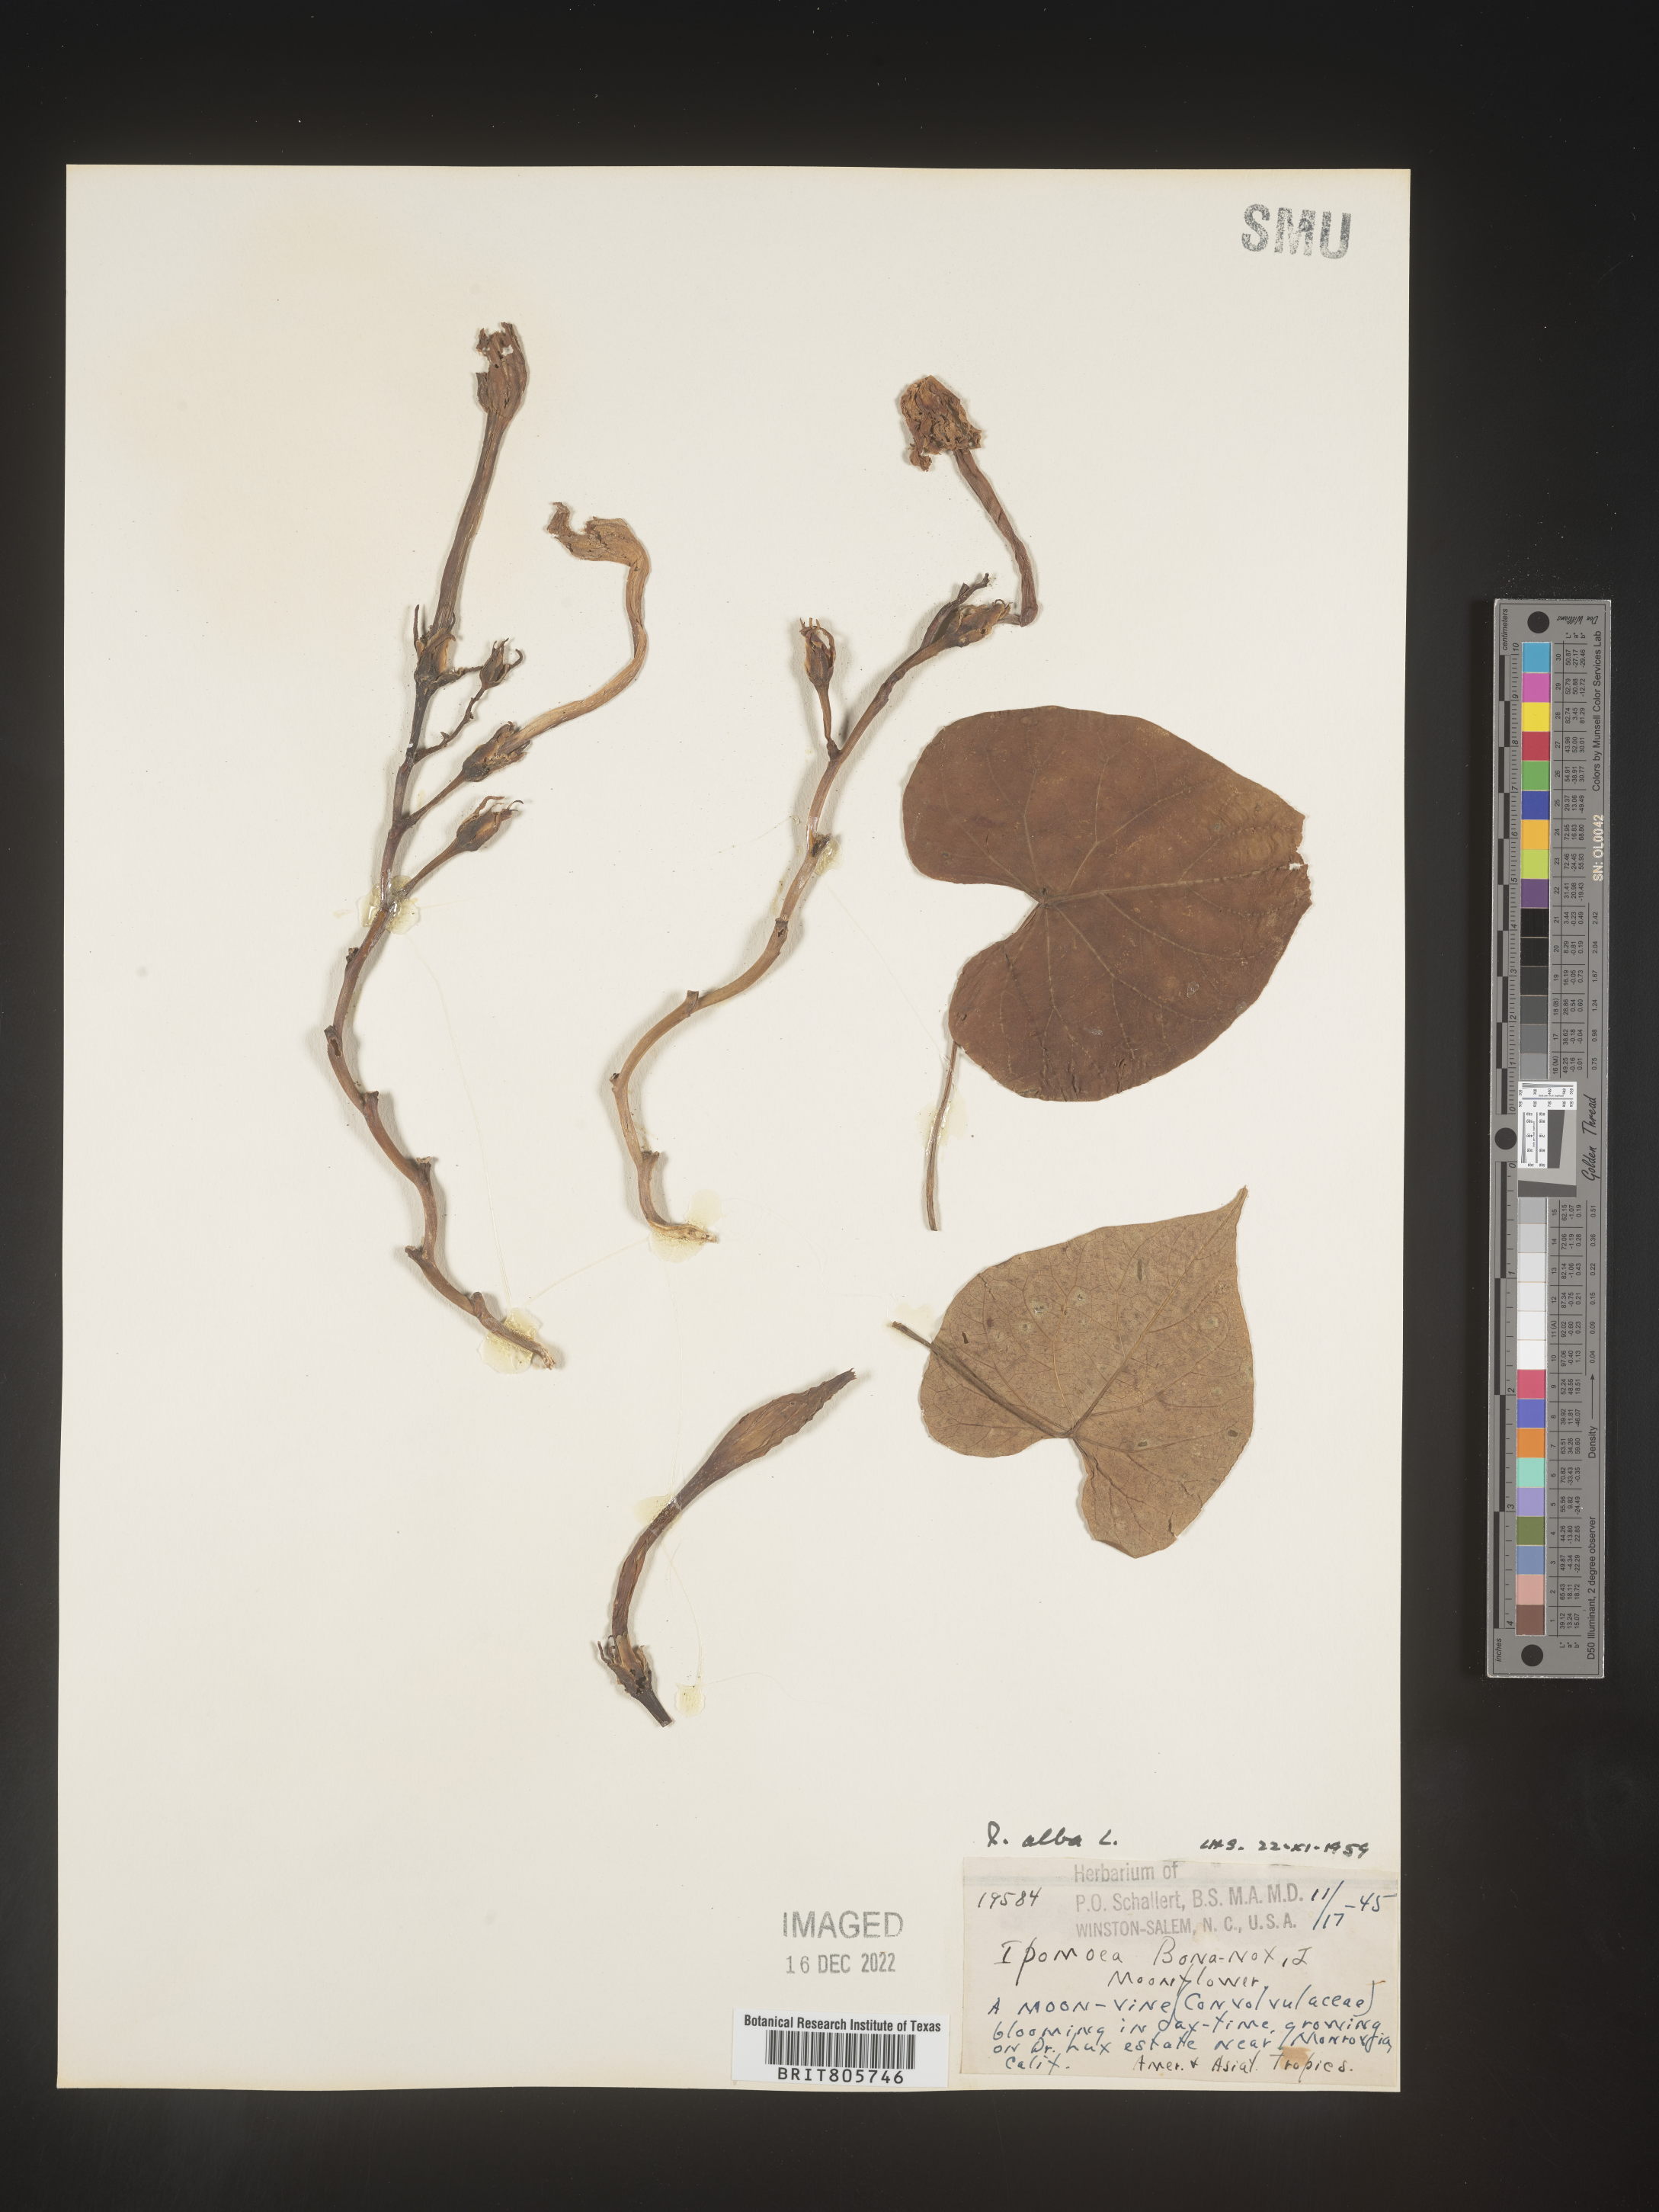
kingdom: Plantae
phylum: Tracheophyta
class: Magnoliopsida
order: Solanales
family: Convolvulaceae
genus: Ipomoea
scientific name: Ipomoea alba
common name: Moonflower
